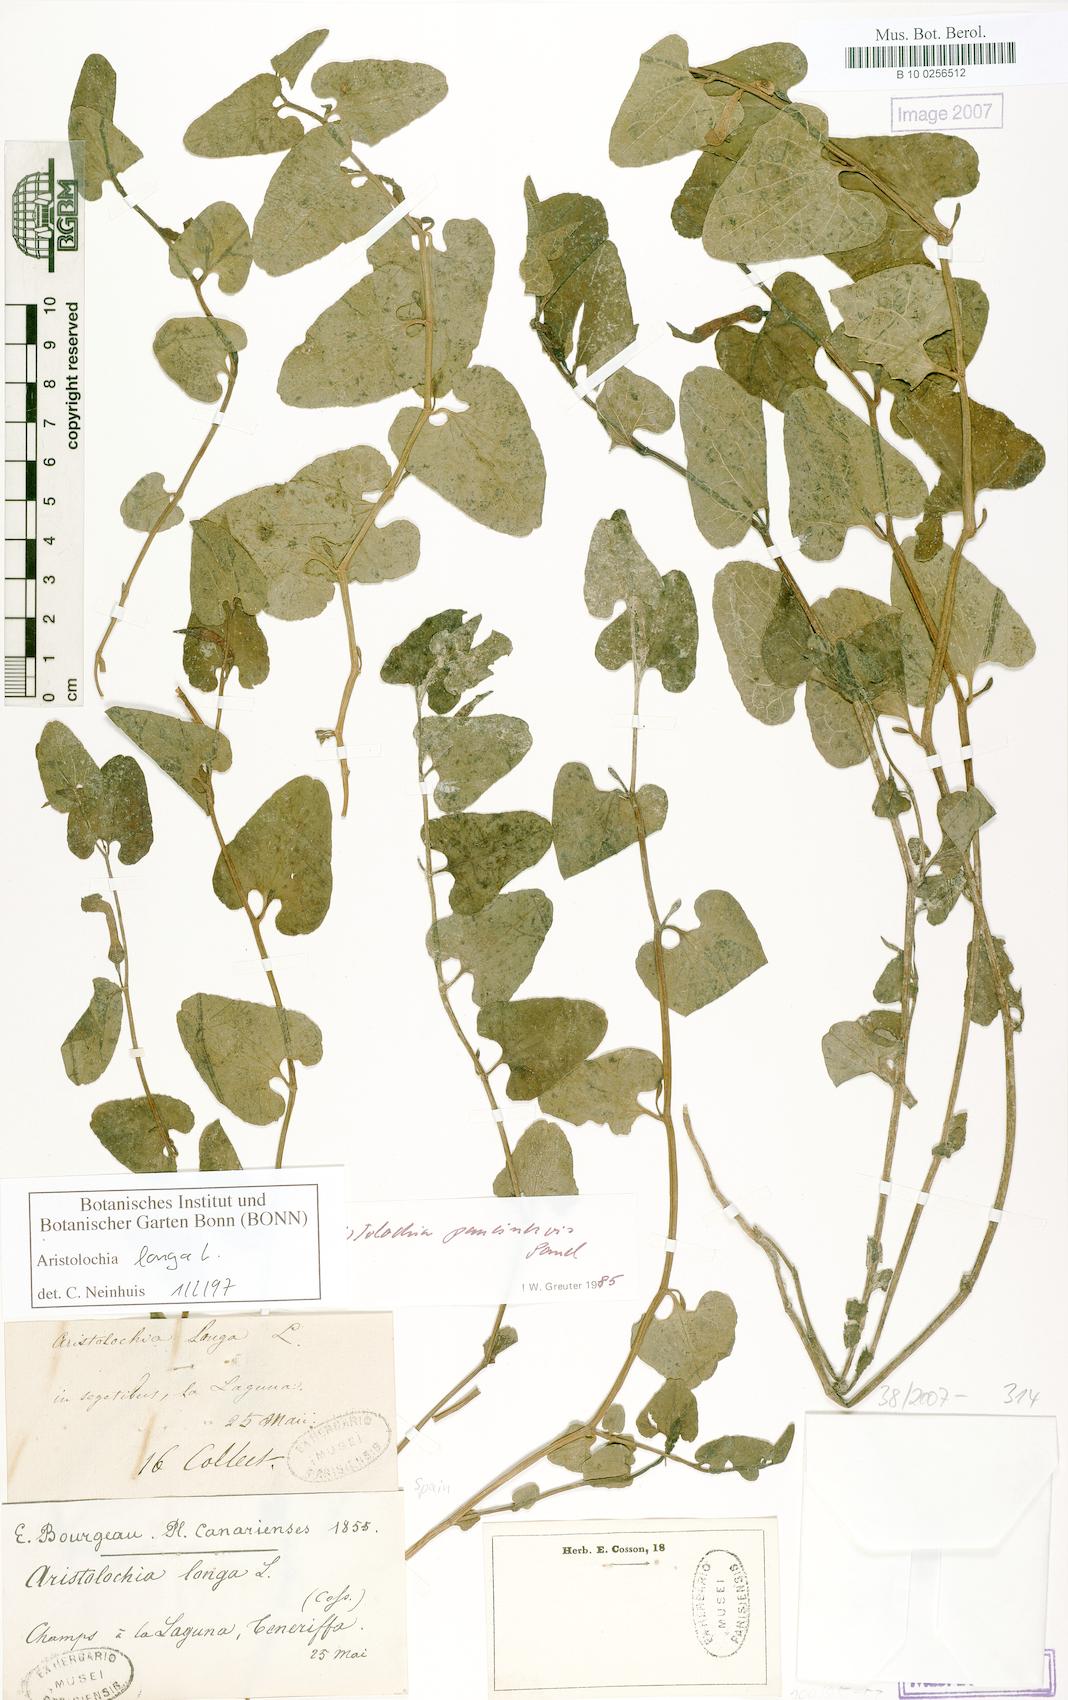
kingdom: Plantae
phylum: Tracheophyta
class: Magnoliopsida
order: Piperales
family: Aristolochiaceae
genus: Aristolochia
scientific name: Aristolochia fontanesii
